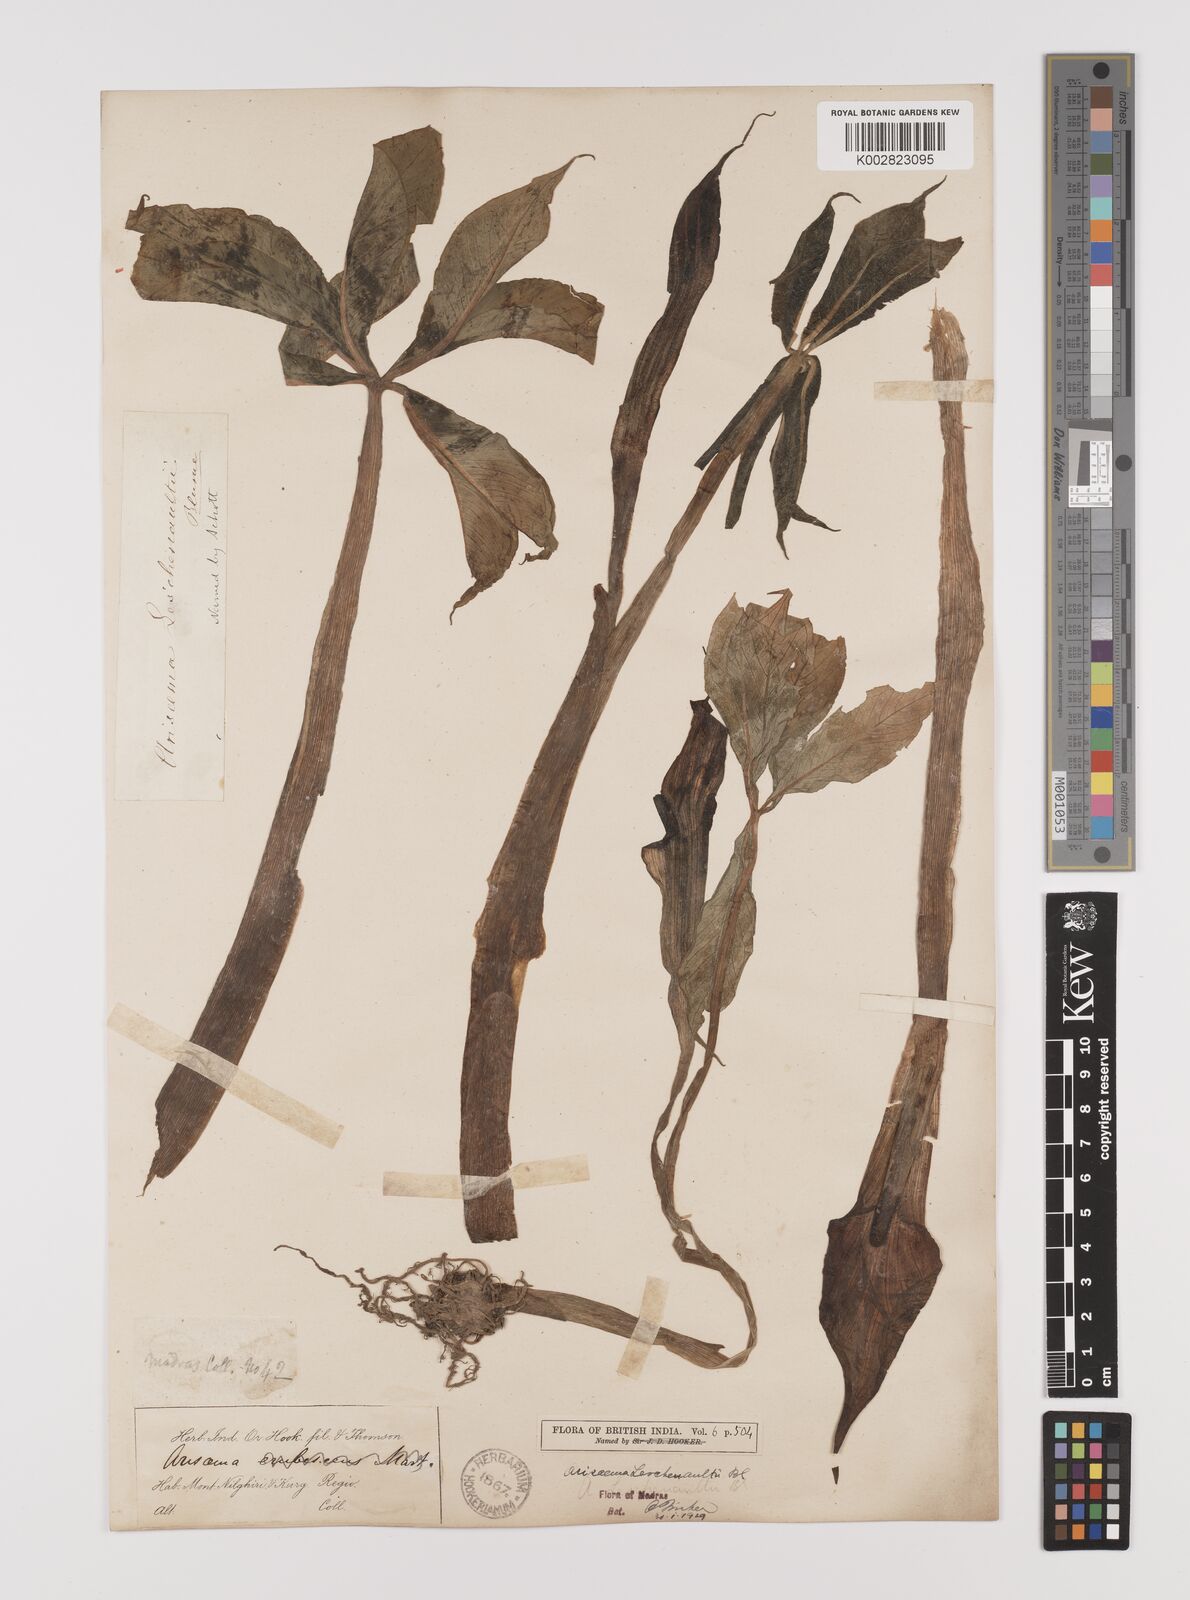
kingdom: Plantae
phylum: Tracheophyta
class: Liliopsida
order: Alismatales
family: Araceae
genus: Arisaema
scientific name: Arisaema leschenaultii
